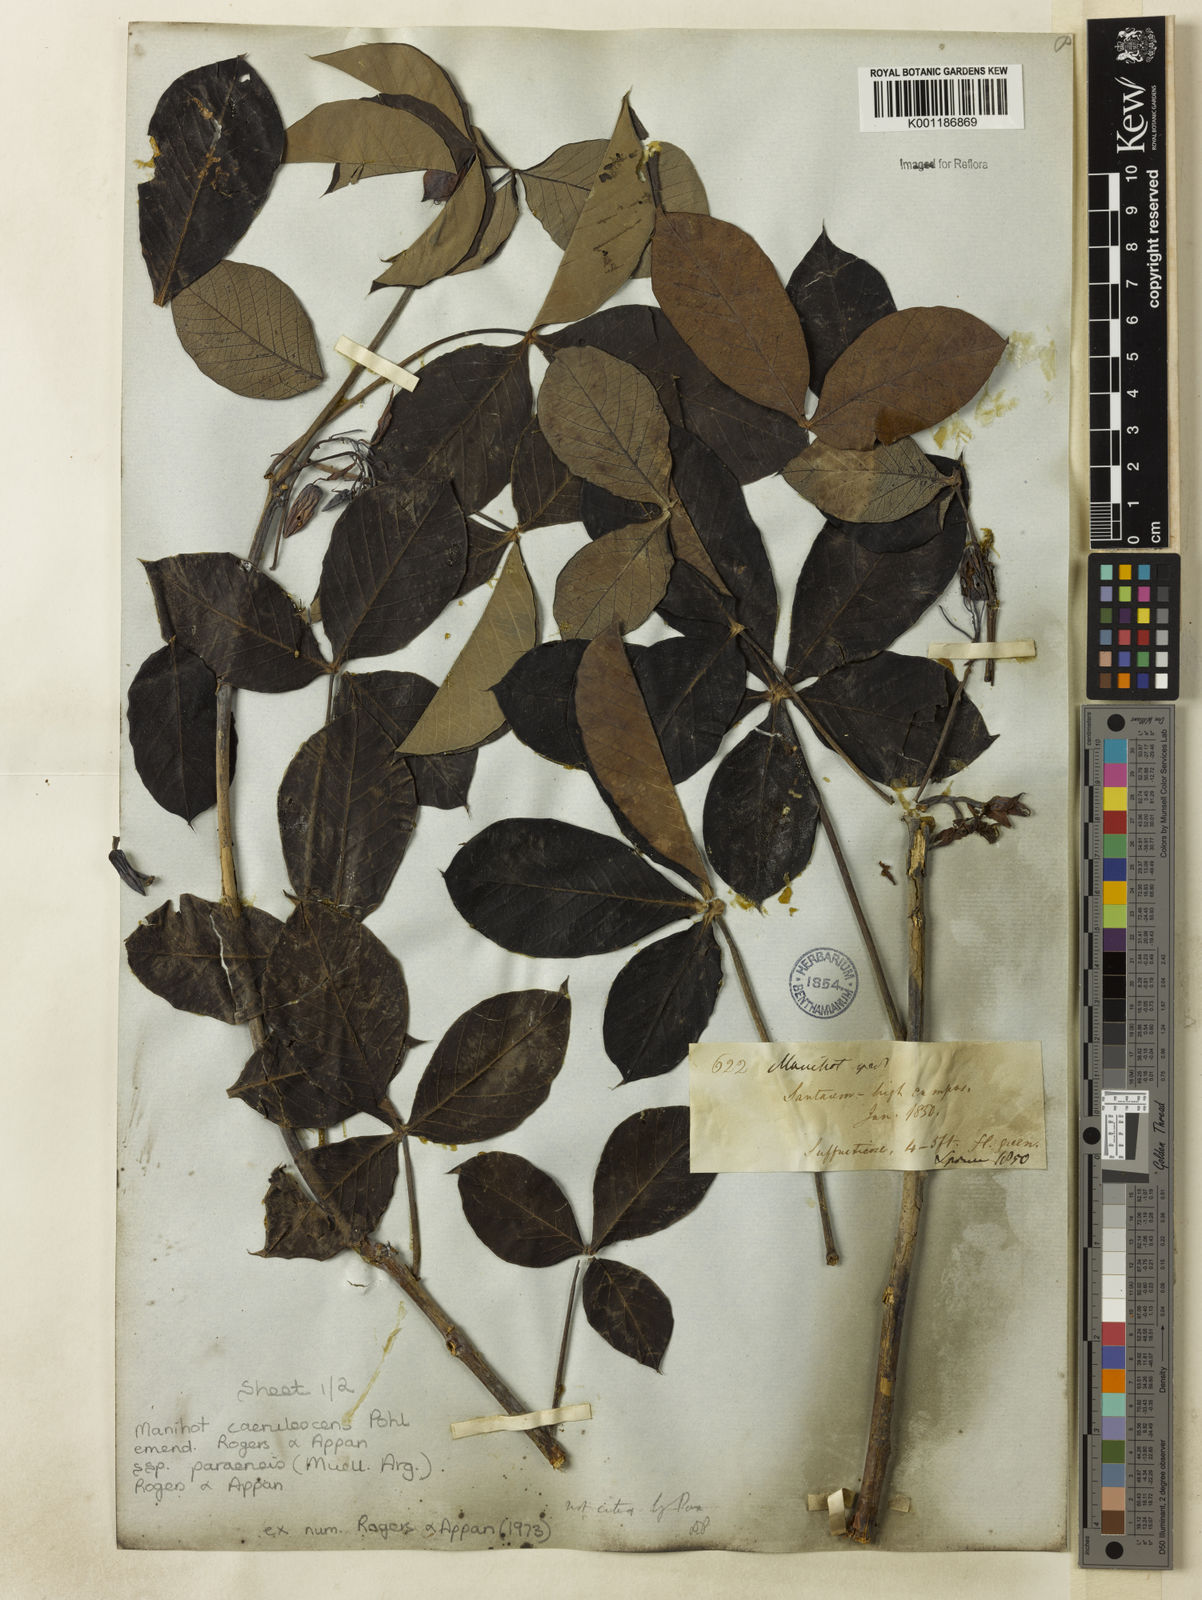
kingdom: Plantae
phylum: Tracheophyta
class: Magnoliopsida
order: Malpighiales
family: Euphorbiaceae
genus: Manihot
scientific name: Manihot
